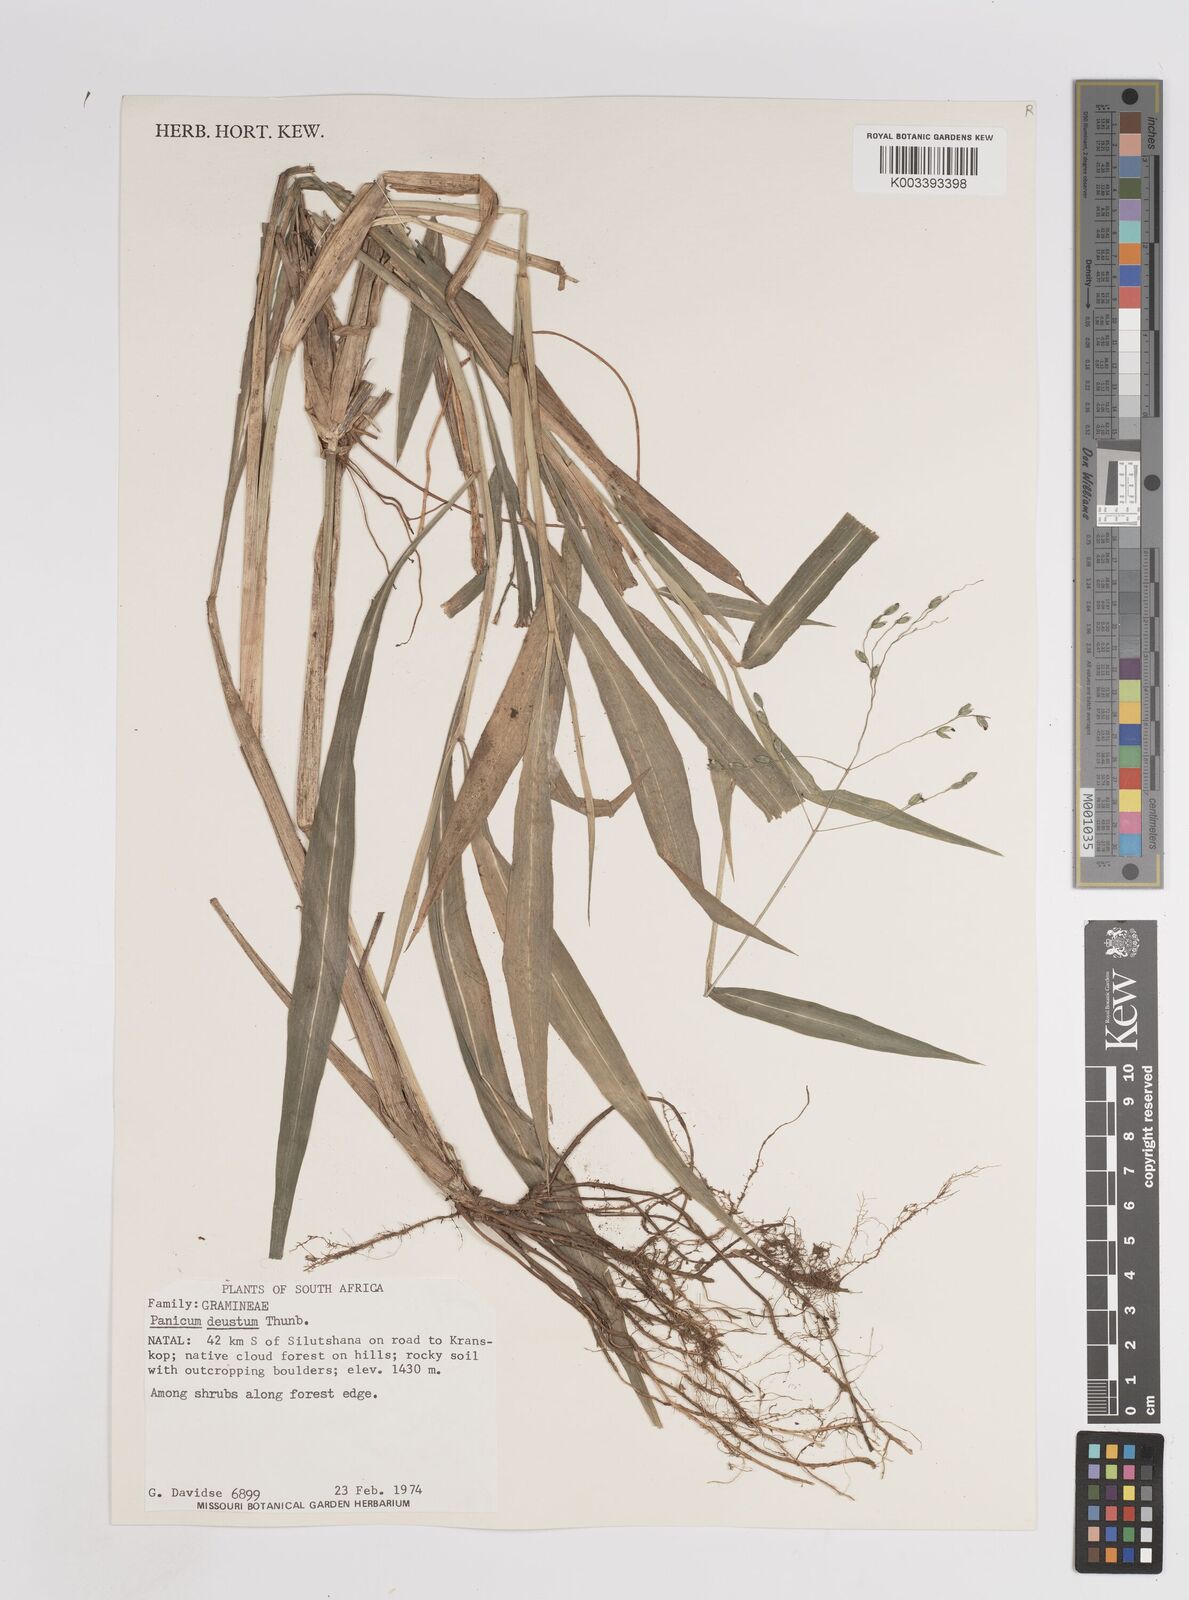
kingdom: Plantae
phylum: Tracheophyta
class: Liliopsida
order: Poales
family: Poaceae
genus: Panicum
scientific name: Panicum deustum
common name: Reed panicum
